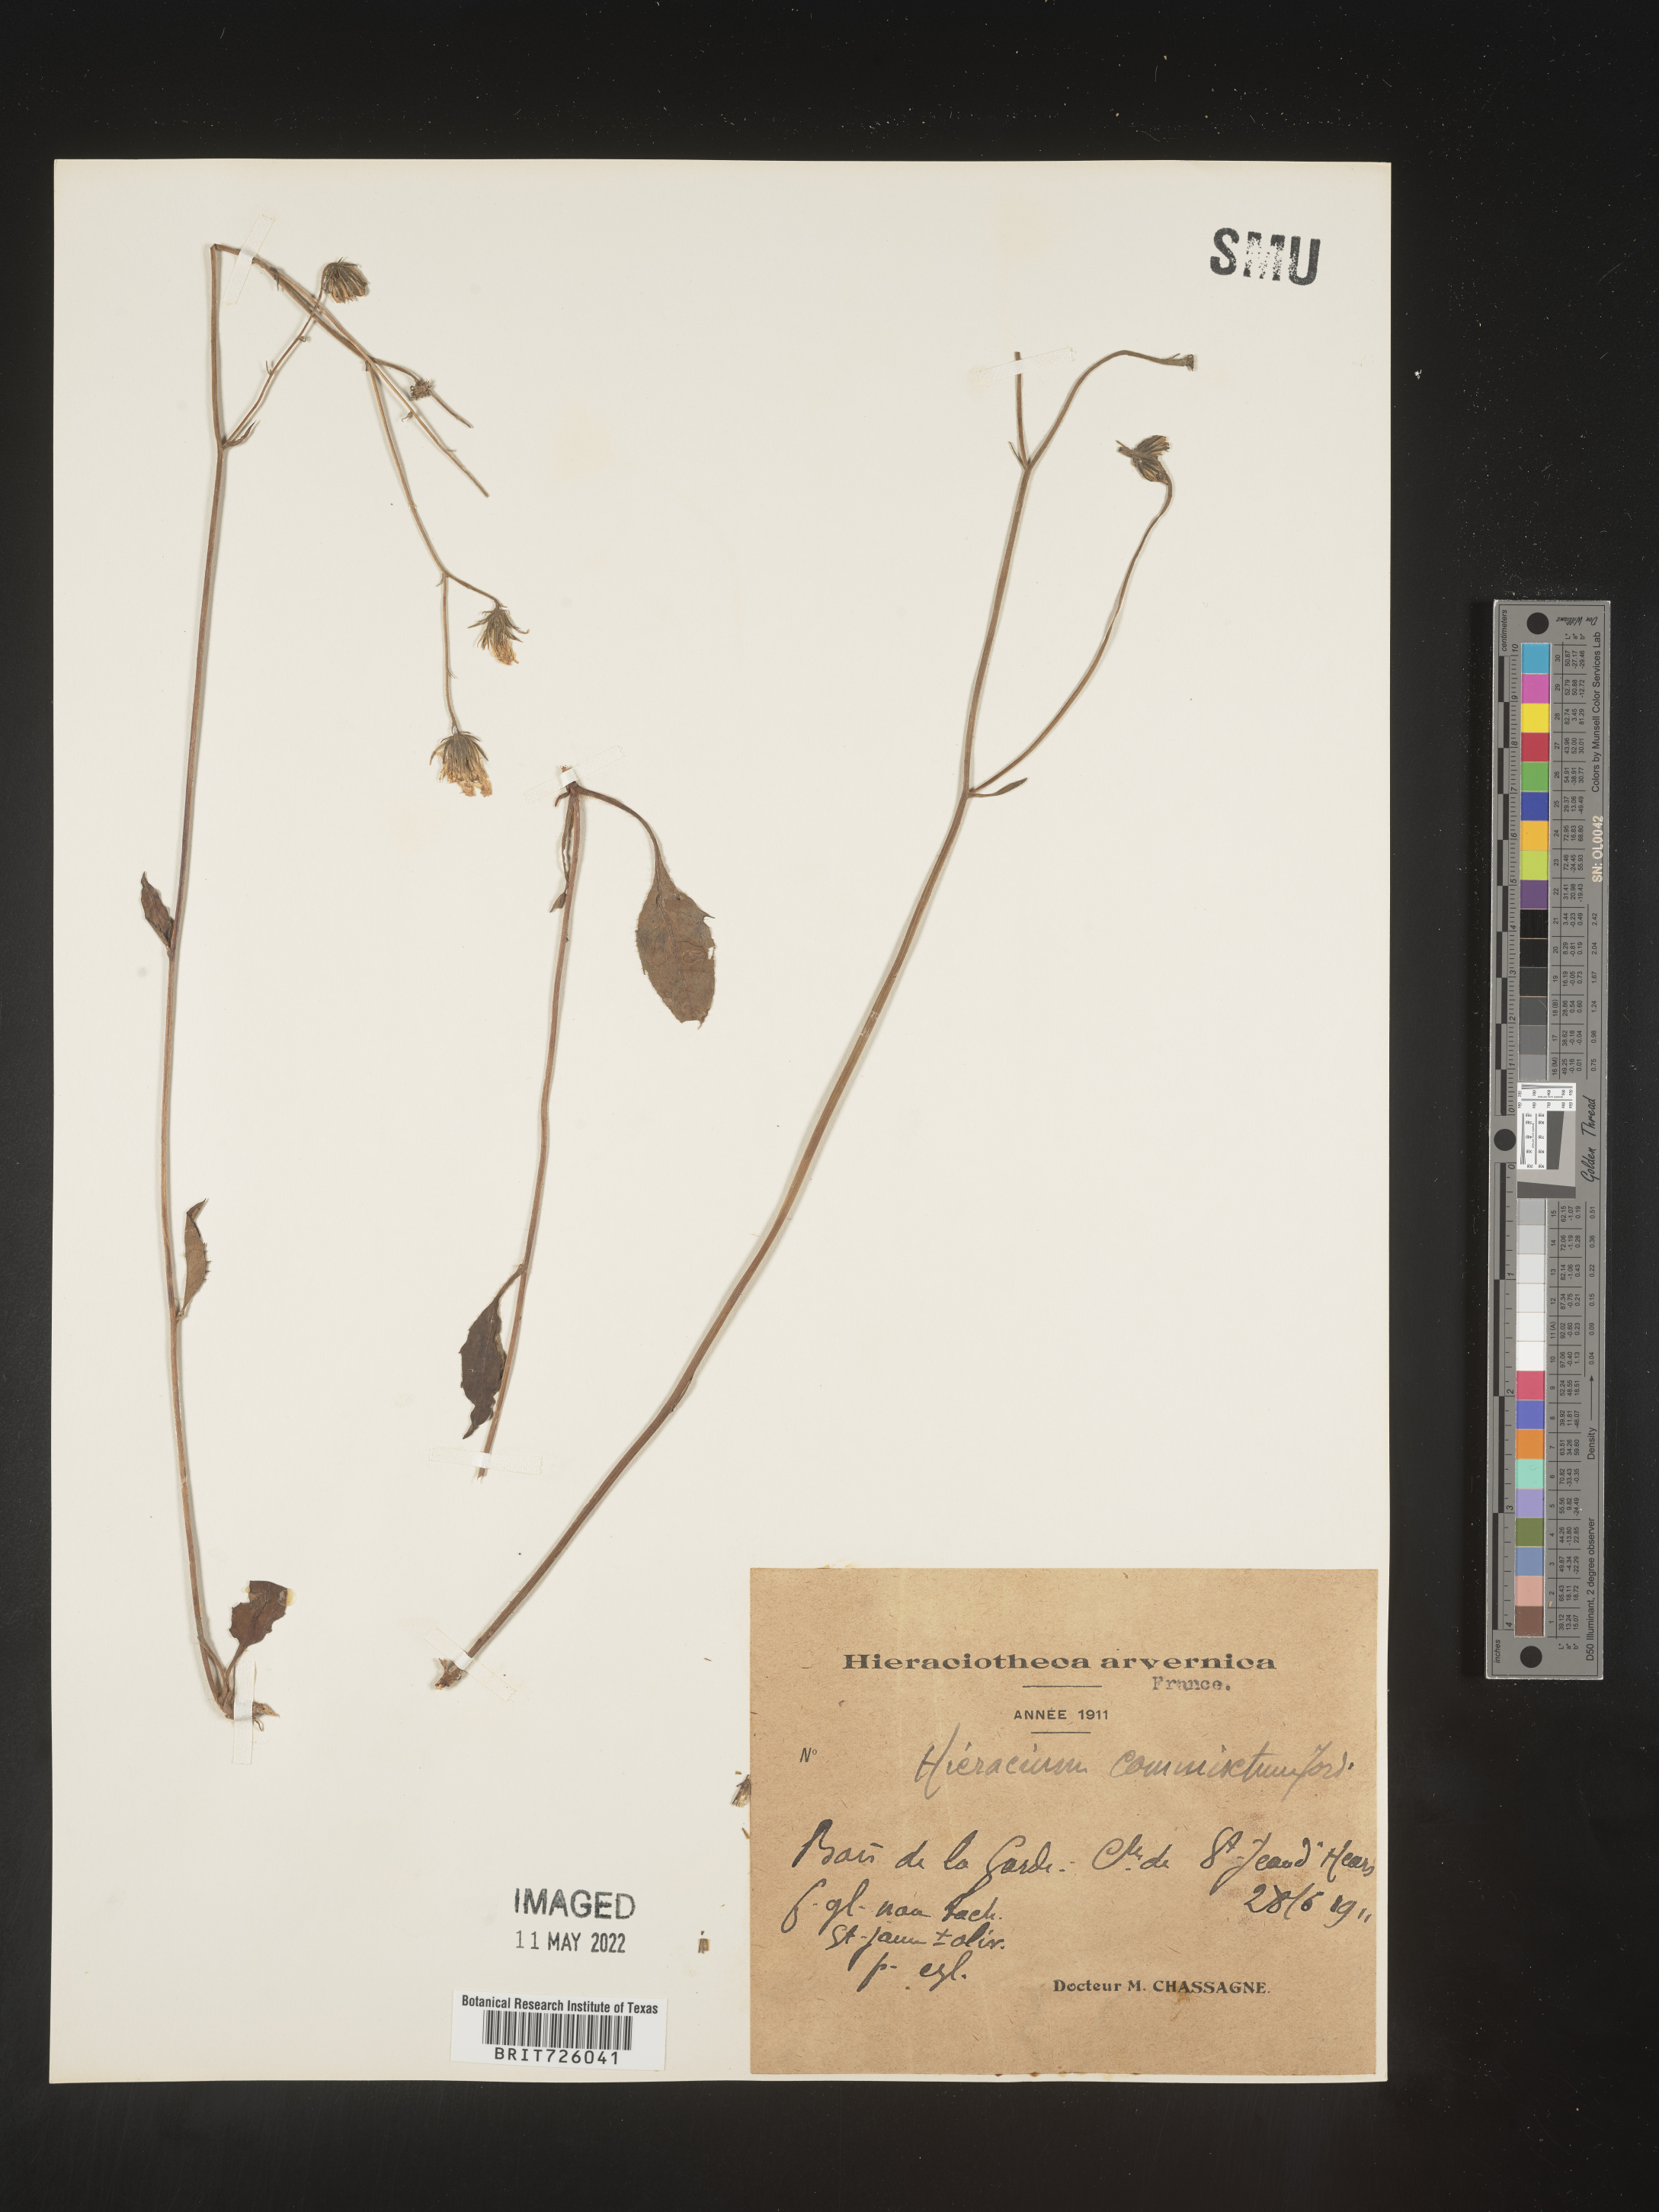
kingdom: Plantae
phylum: Tracheophyta
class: Magnoliopsida
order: Asterales
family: Asteraceae
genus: Hieracium
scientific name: Hieracium
